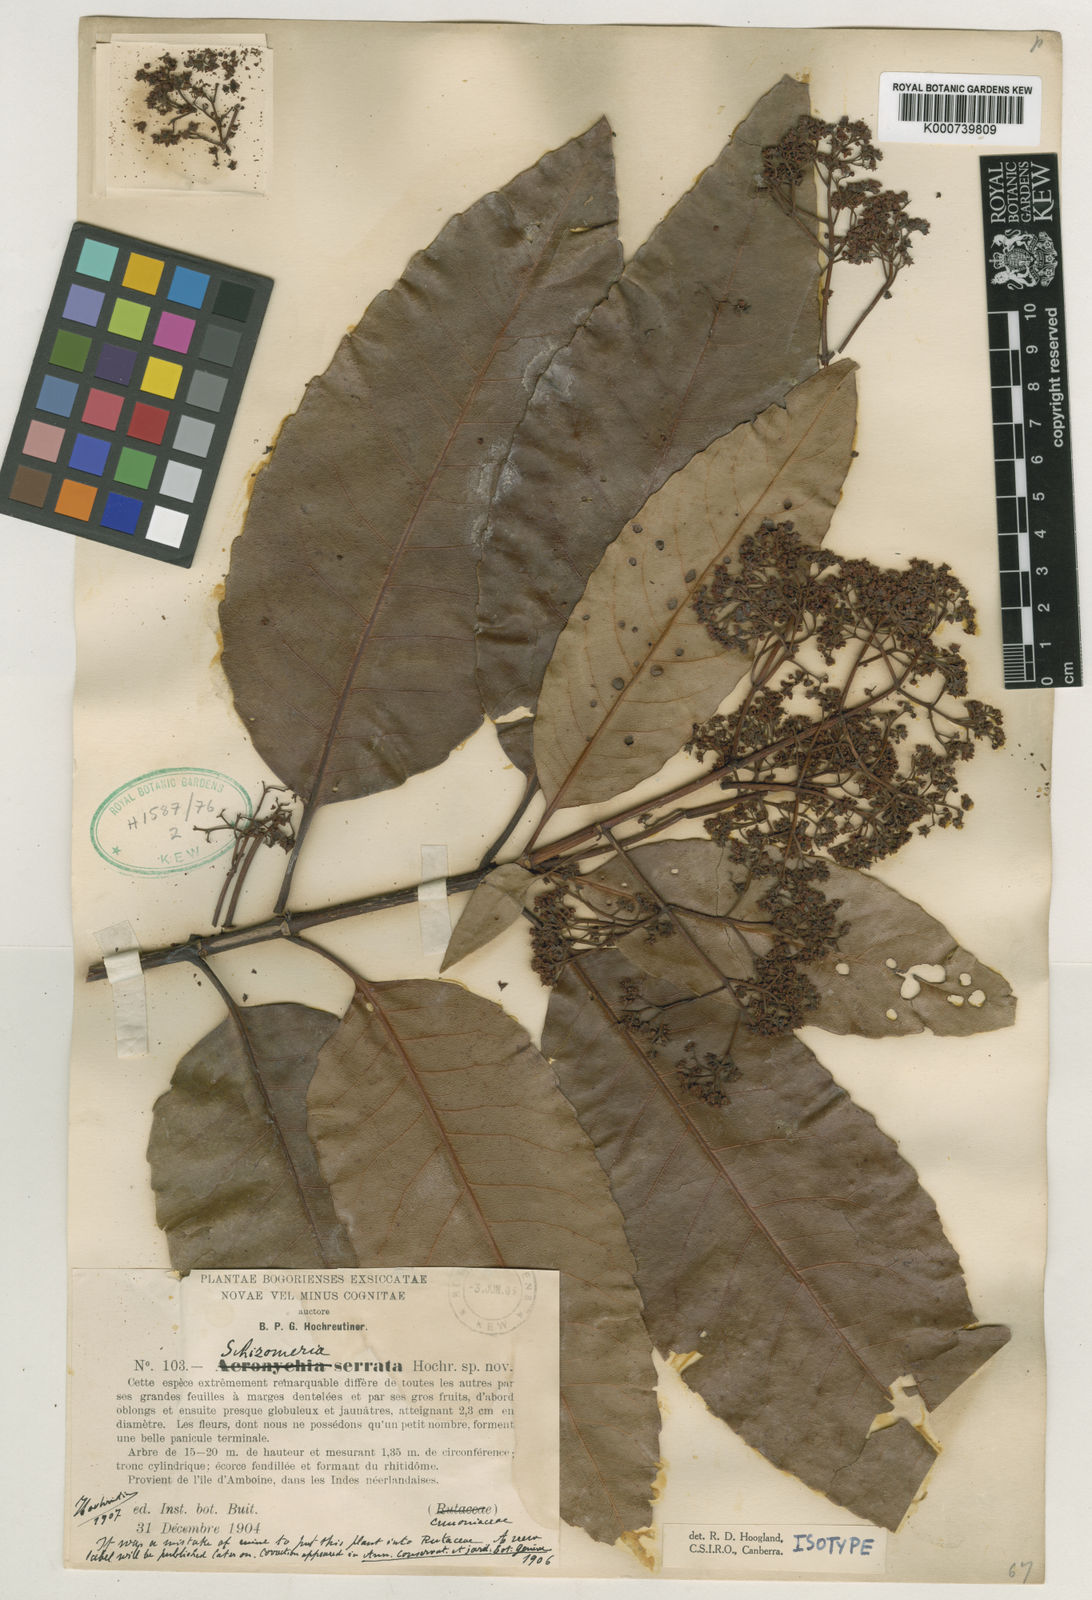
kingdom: Plantae
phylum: Tracheophyta
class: Magnoliopsida
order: Oxalidales
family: Cunoniaceae
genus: Schizomeria
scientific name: Schizomeria serrata
